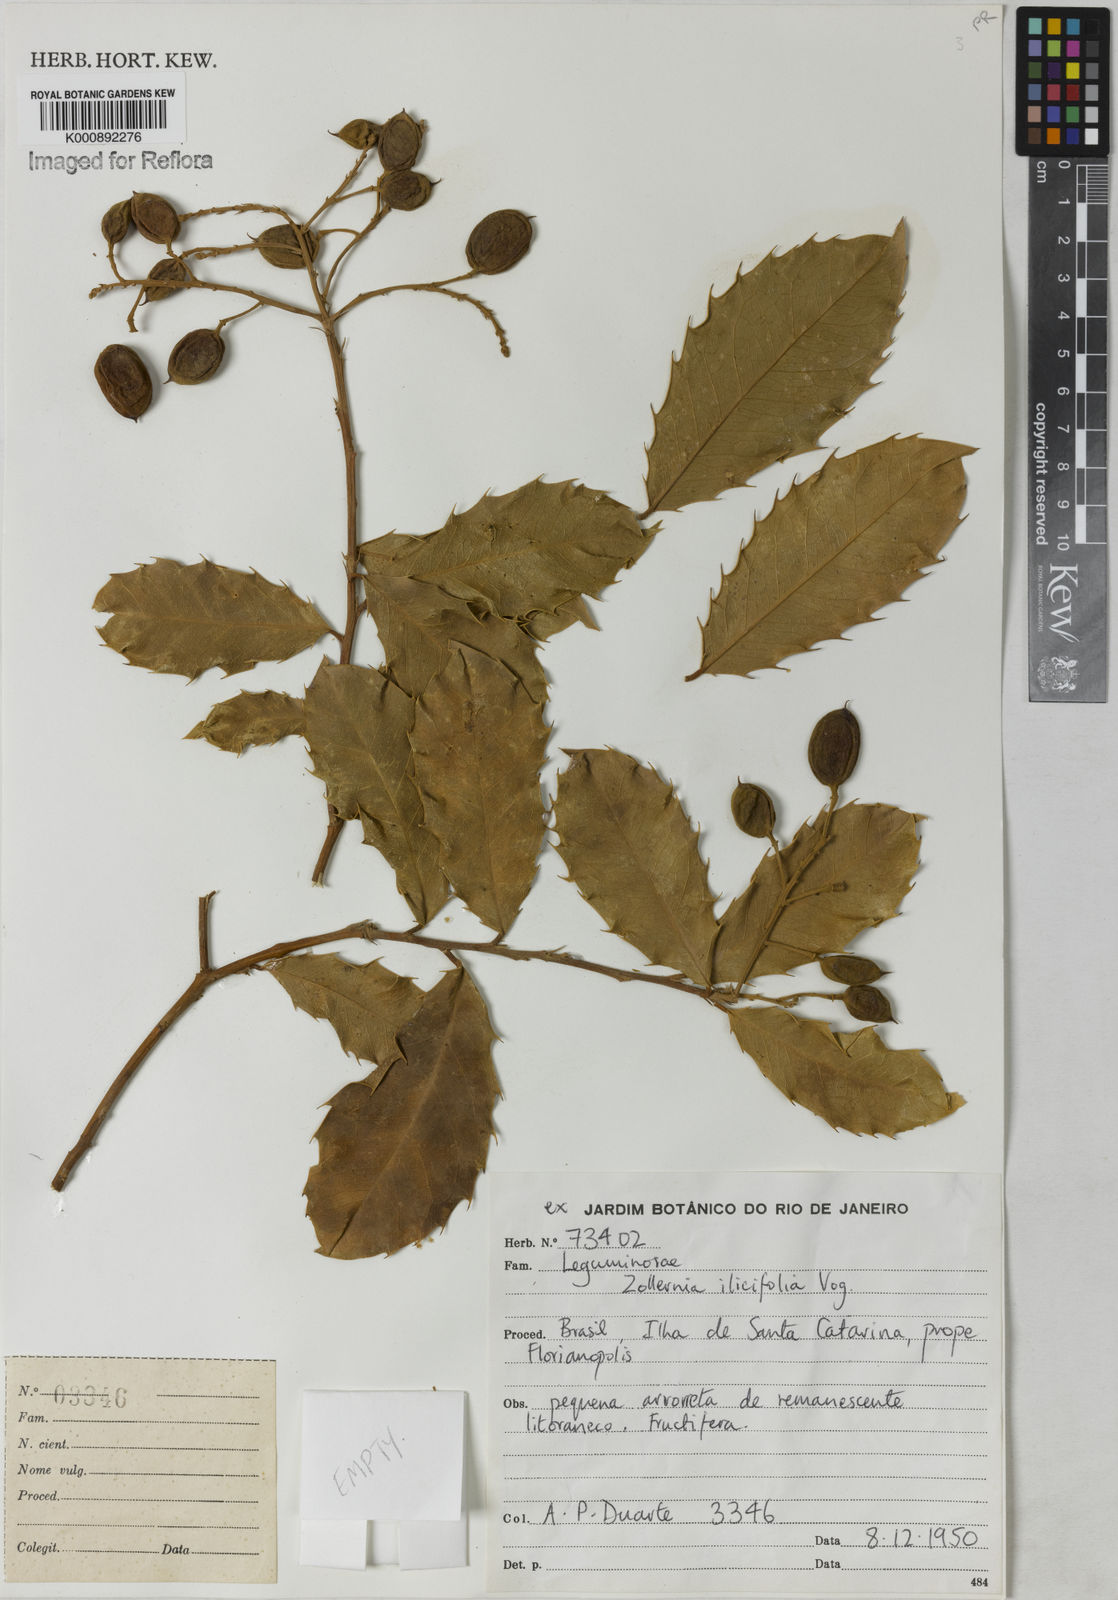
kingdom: Plantae
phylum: Tracheophyta
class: Magnoliopsida
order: Fabales
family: Fabaceae
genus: Zollernia
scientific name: Zollernia ilicifolia
